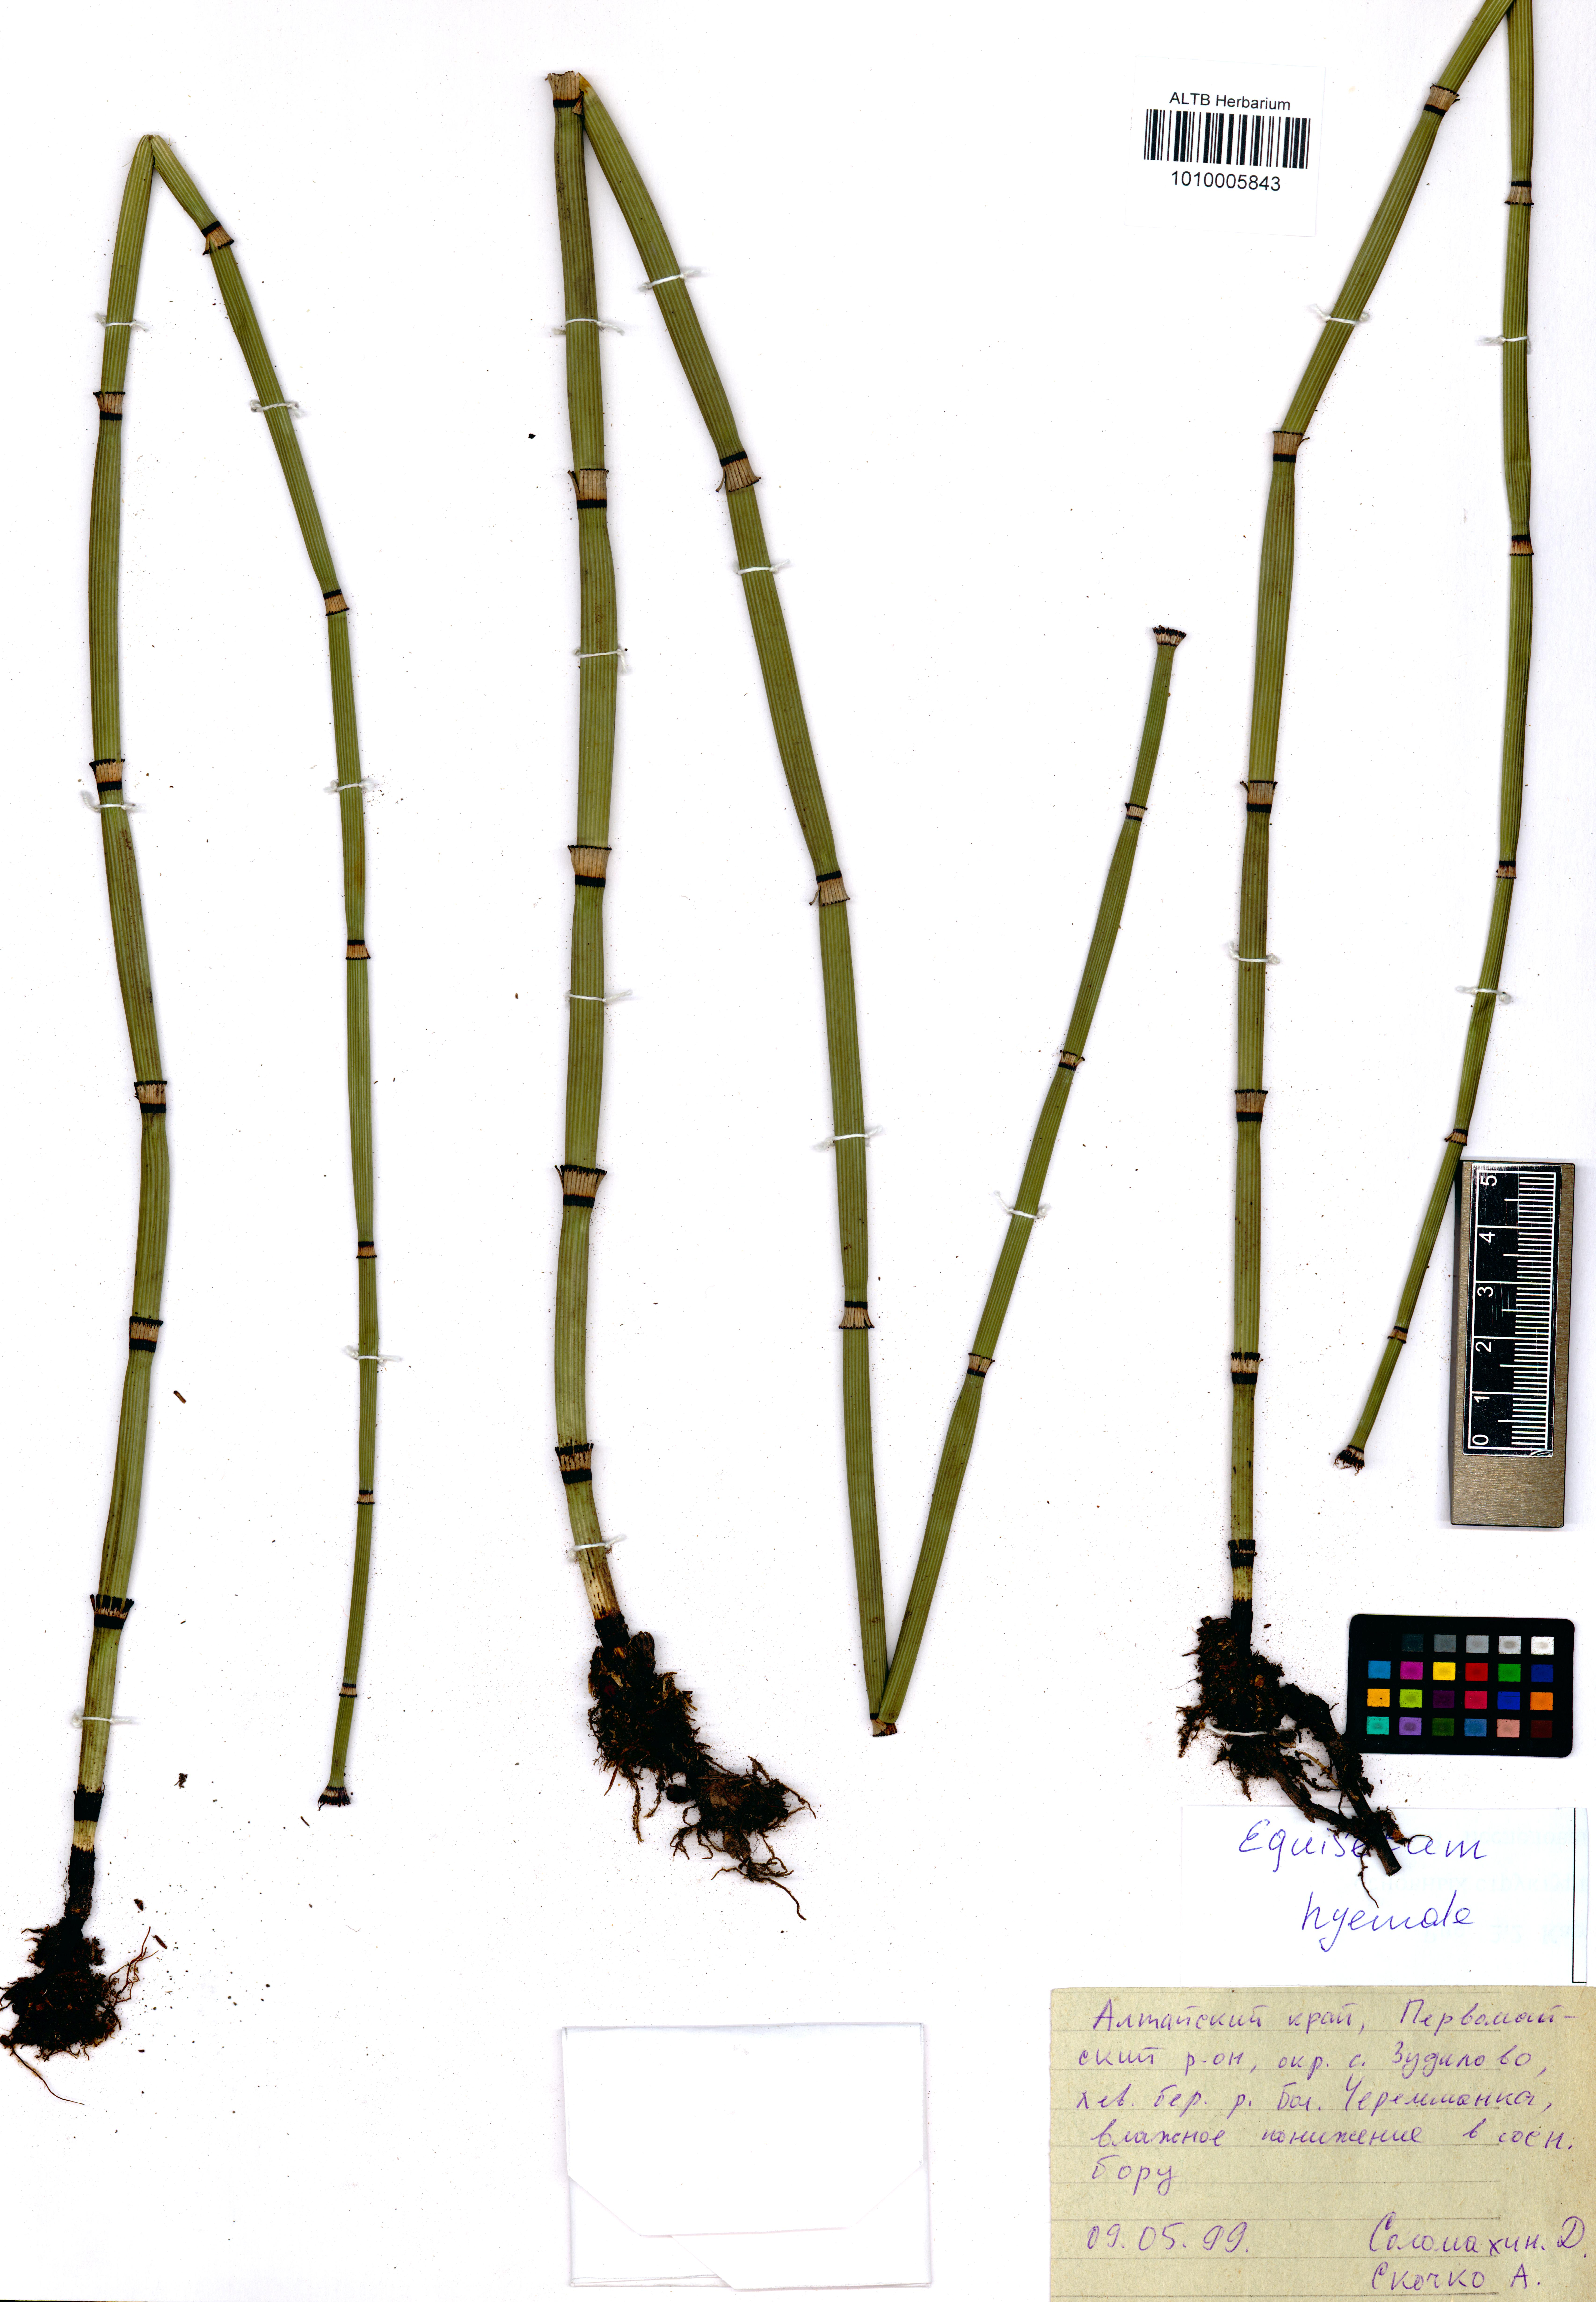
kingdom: Plantae
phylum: Tracheophyta
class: Polypodiopsida
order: Equisetales
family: Equisetaceae
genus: Equisetum
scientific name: Equisetum hyemale
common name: Rough horsetail
